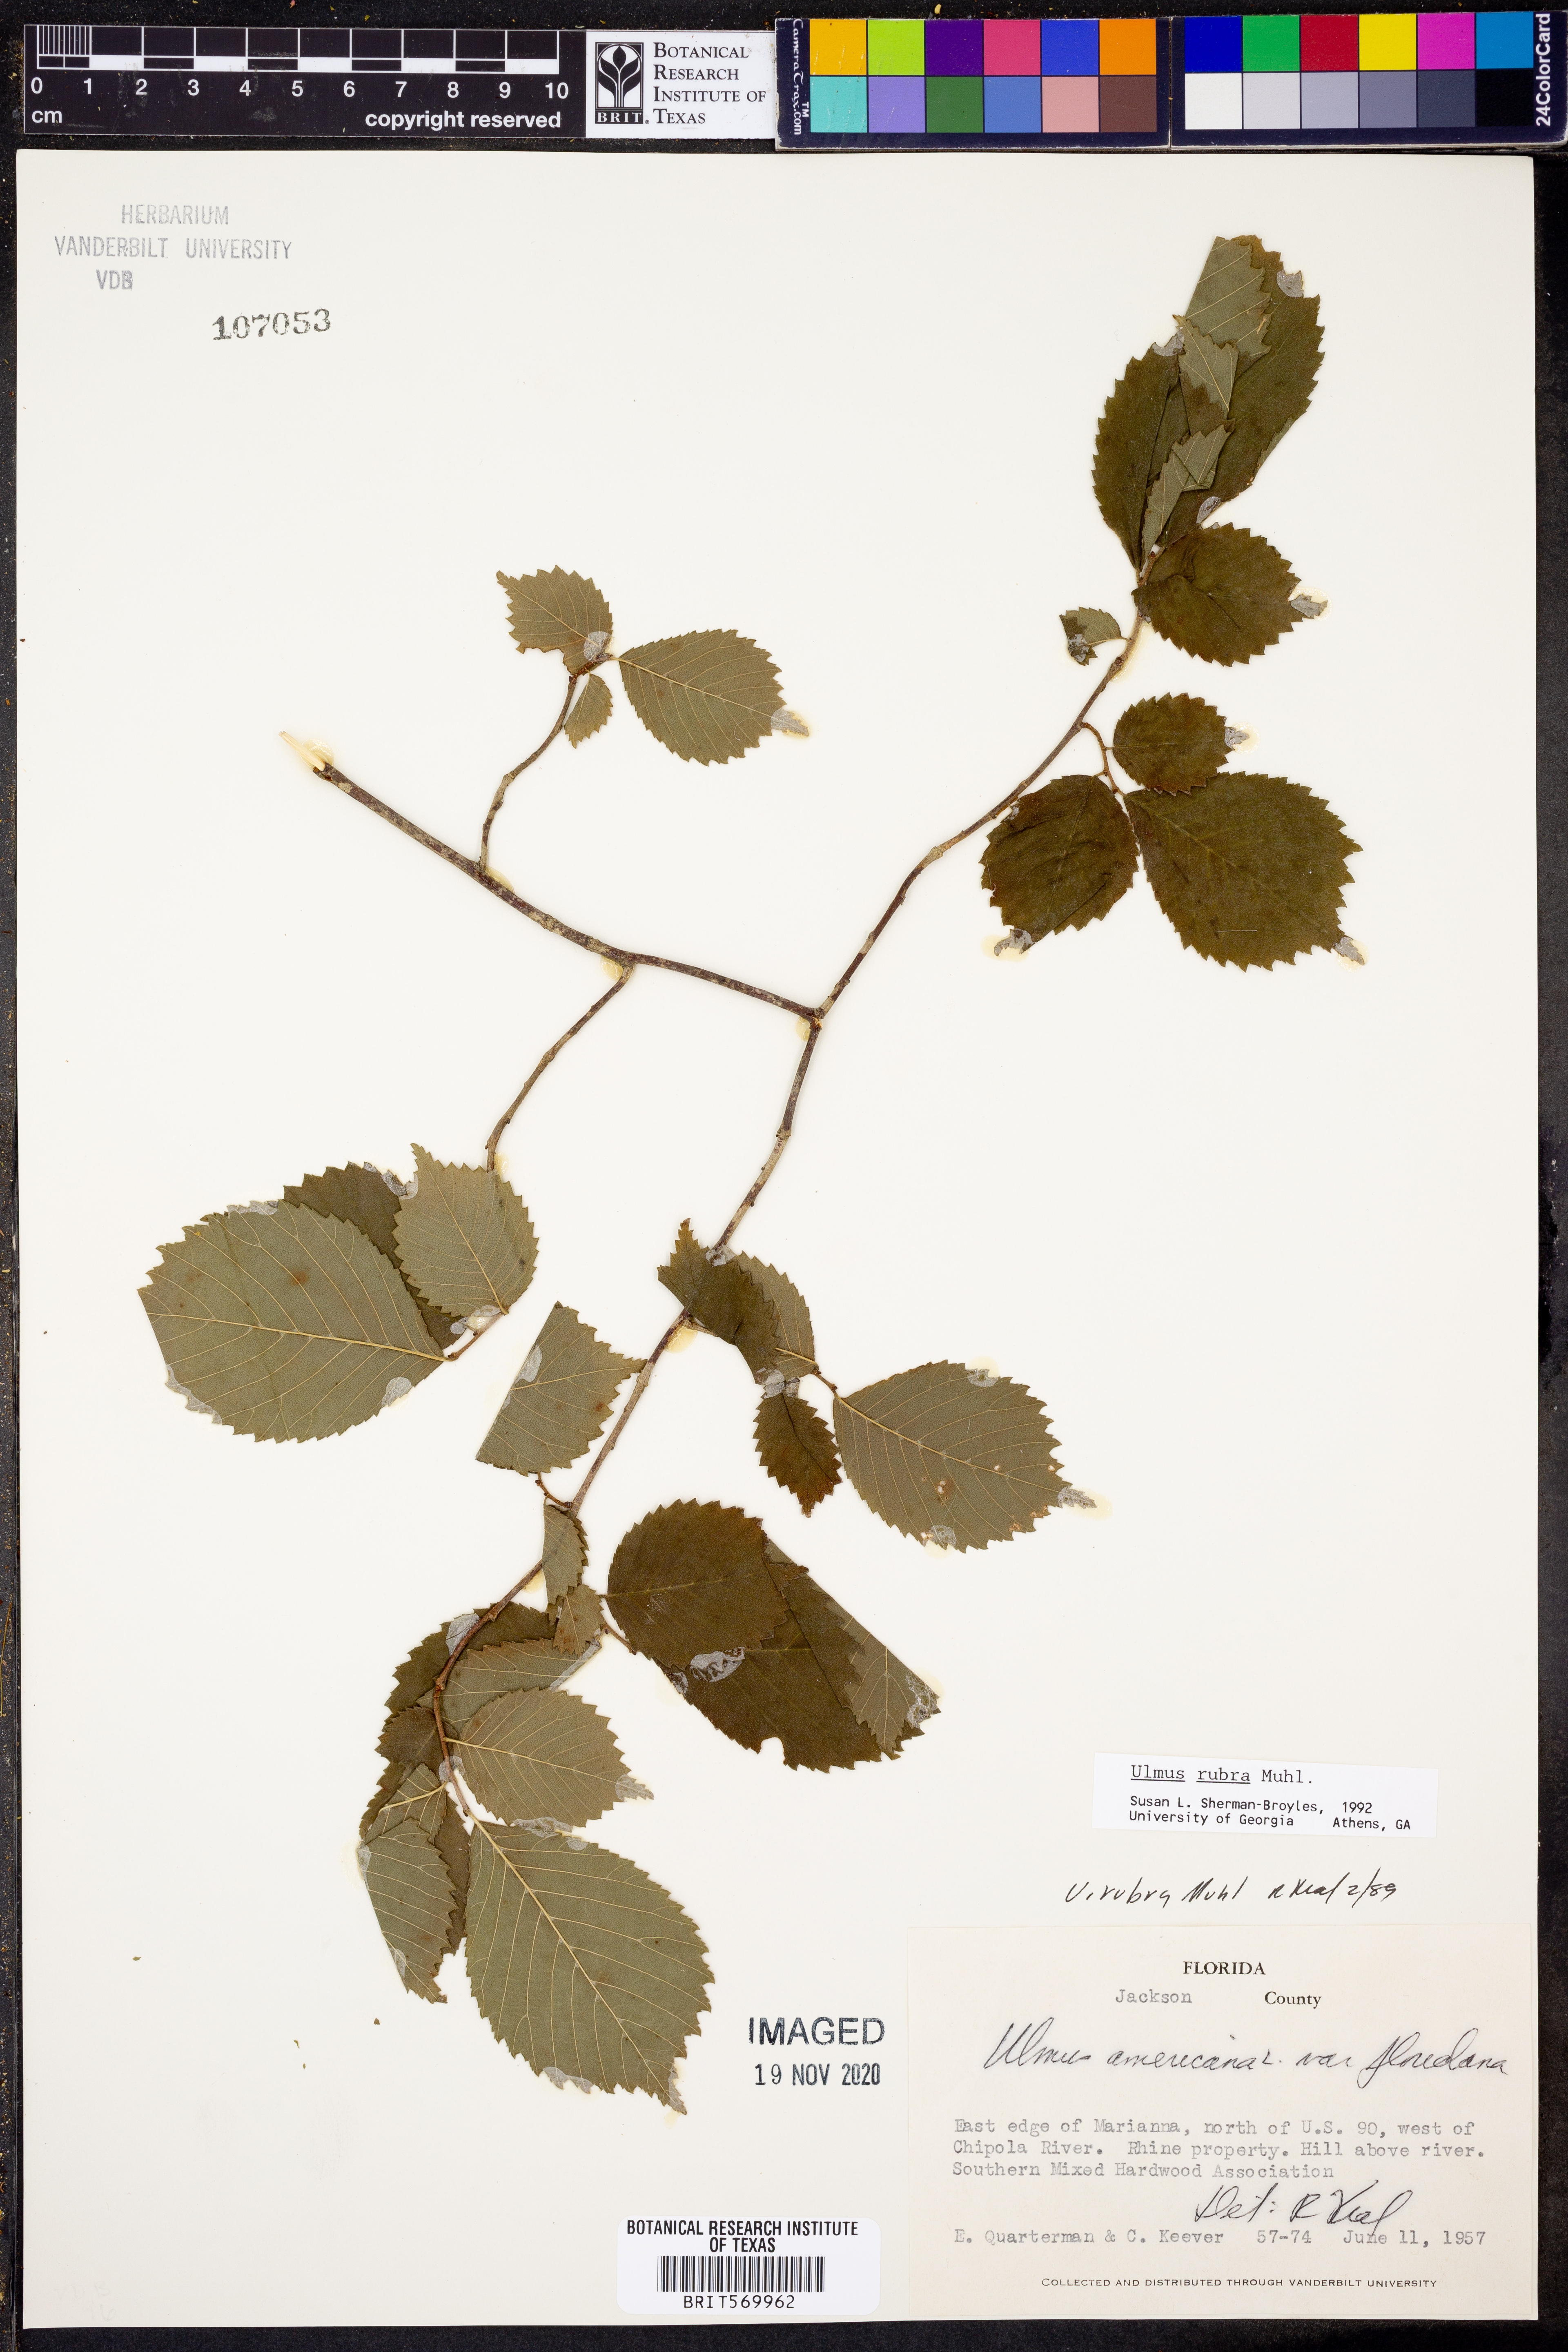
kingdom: Plantae
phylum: Tracheophyta
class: Magnoliopsida
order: Rosales
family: Ulmaceae
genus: Ulmus
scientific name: Ulmus rubra
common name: Slippery elm
